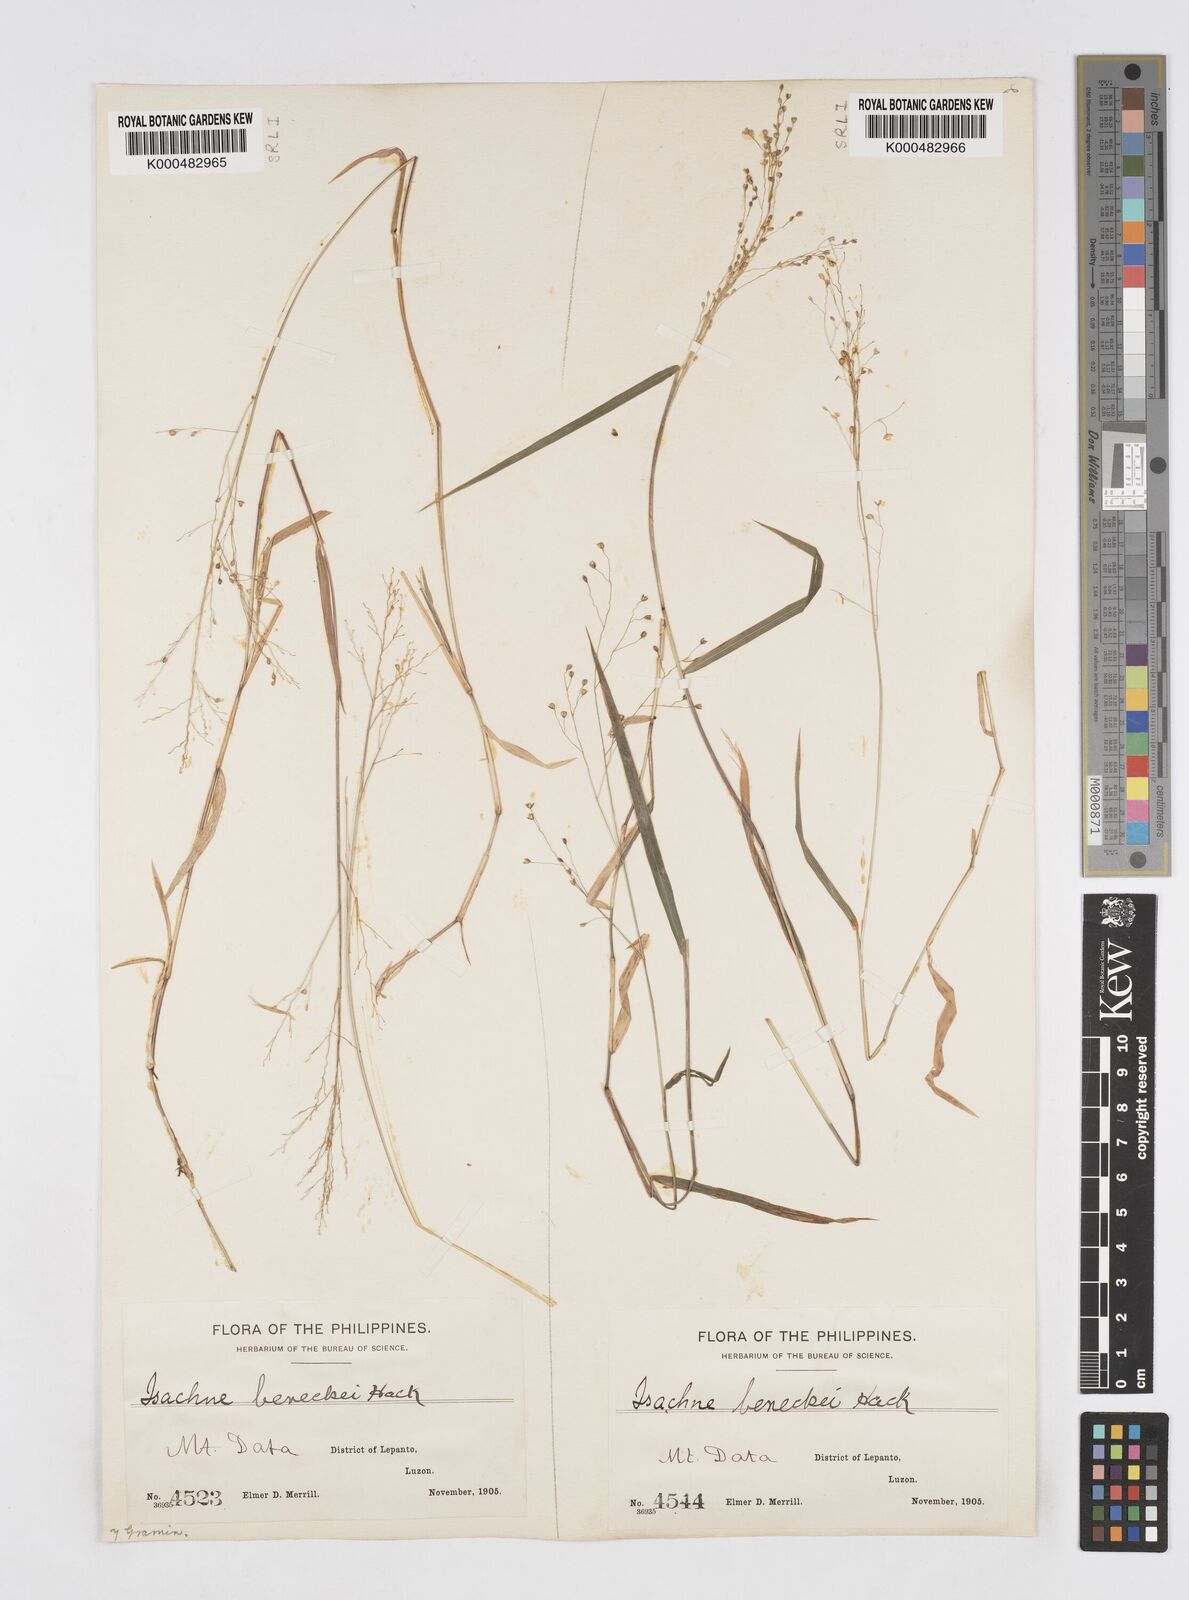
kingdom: Plantae
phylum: Tracheophyta
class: Liliopsida
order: Poales
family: Poaceae
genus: Isachne
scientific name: Isachne clarkei
